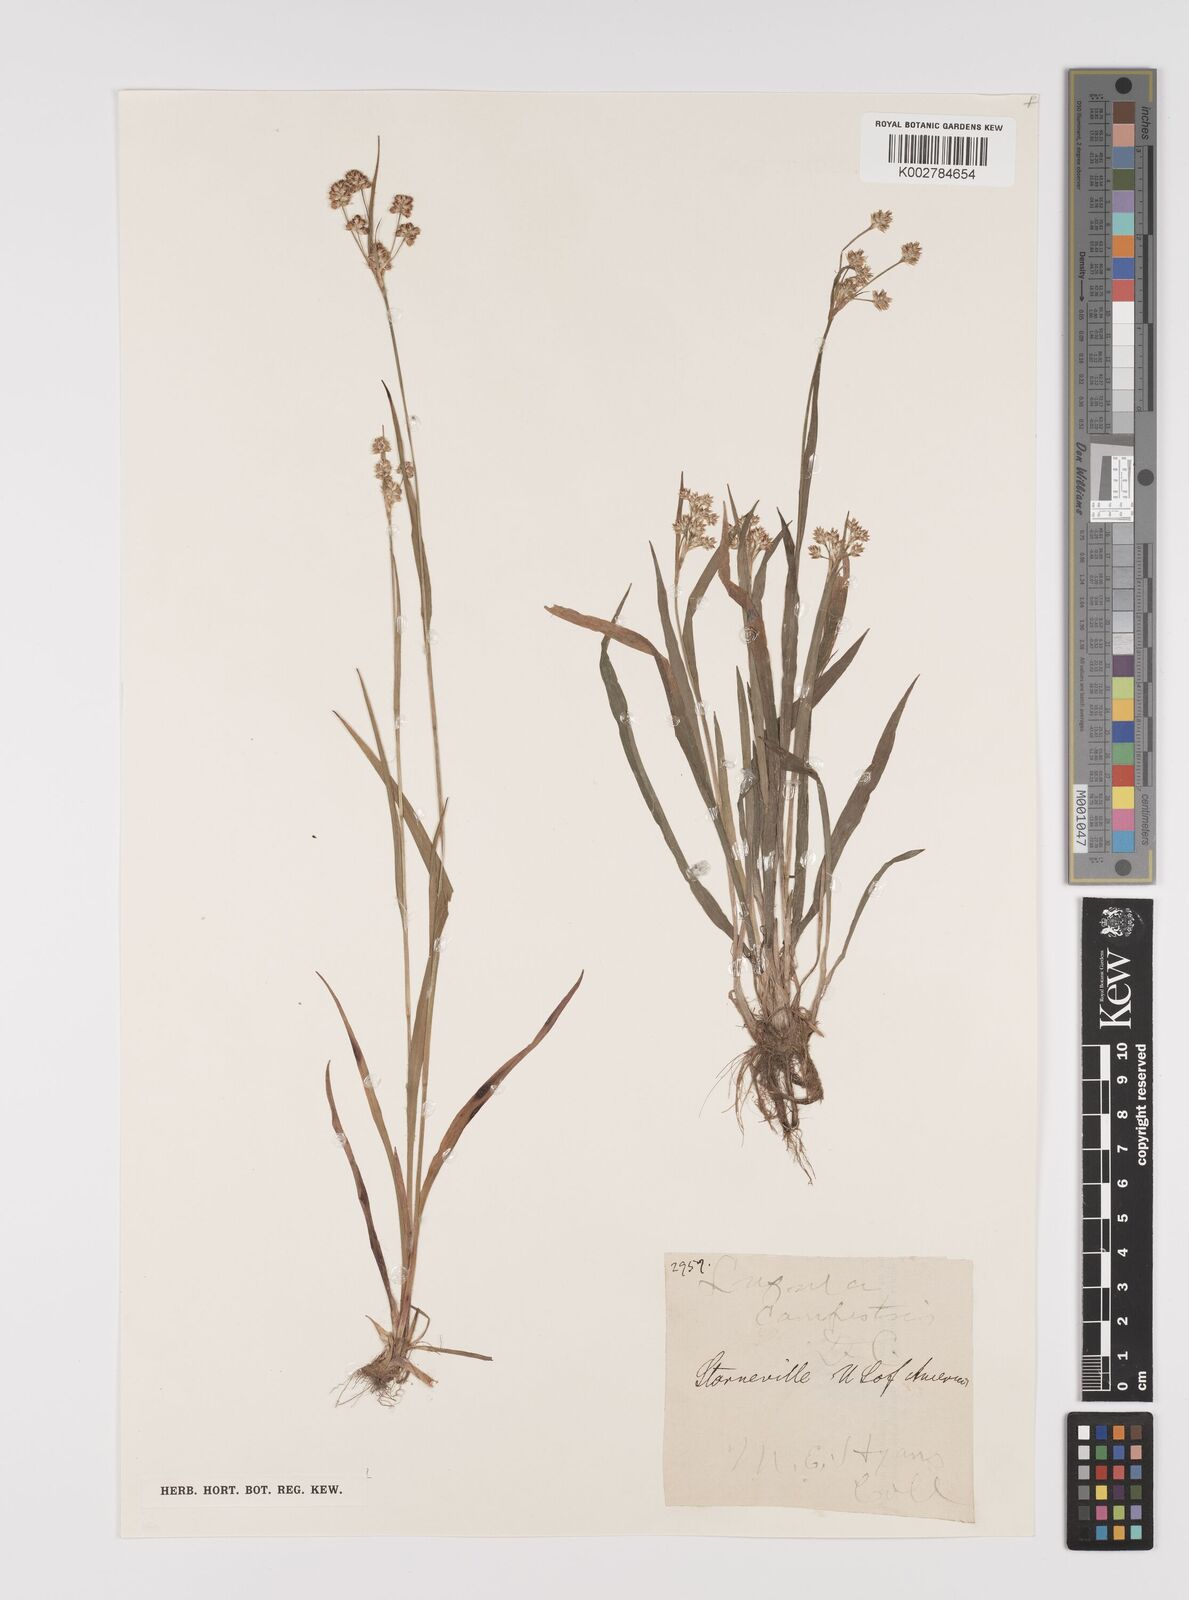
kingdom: Plantae
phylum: Tracheophyta
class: Liliopsida
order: Poales
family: Juncaceae
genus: Luzula
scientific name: Luzula campestris
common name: Field wood-rush
